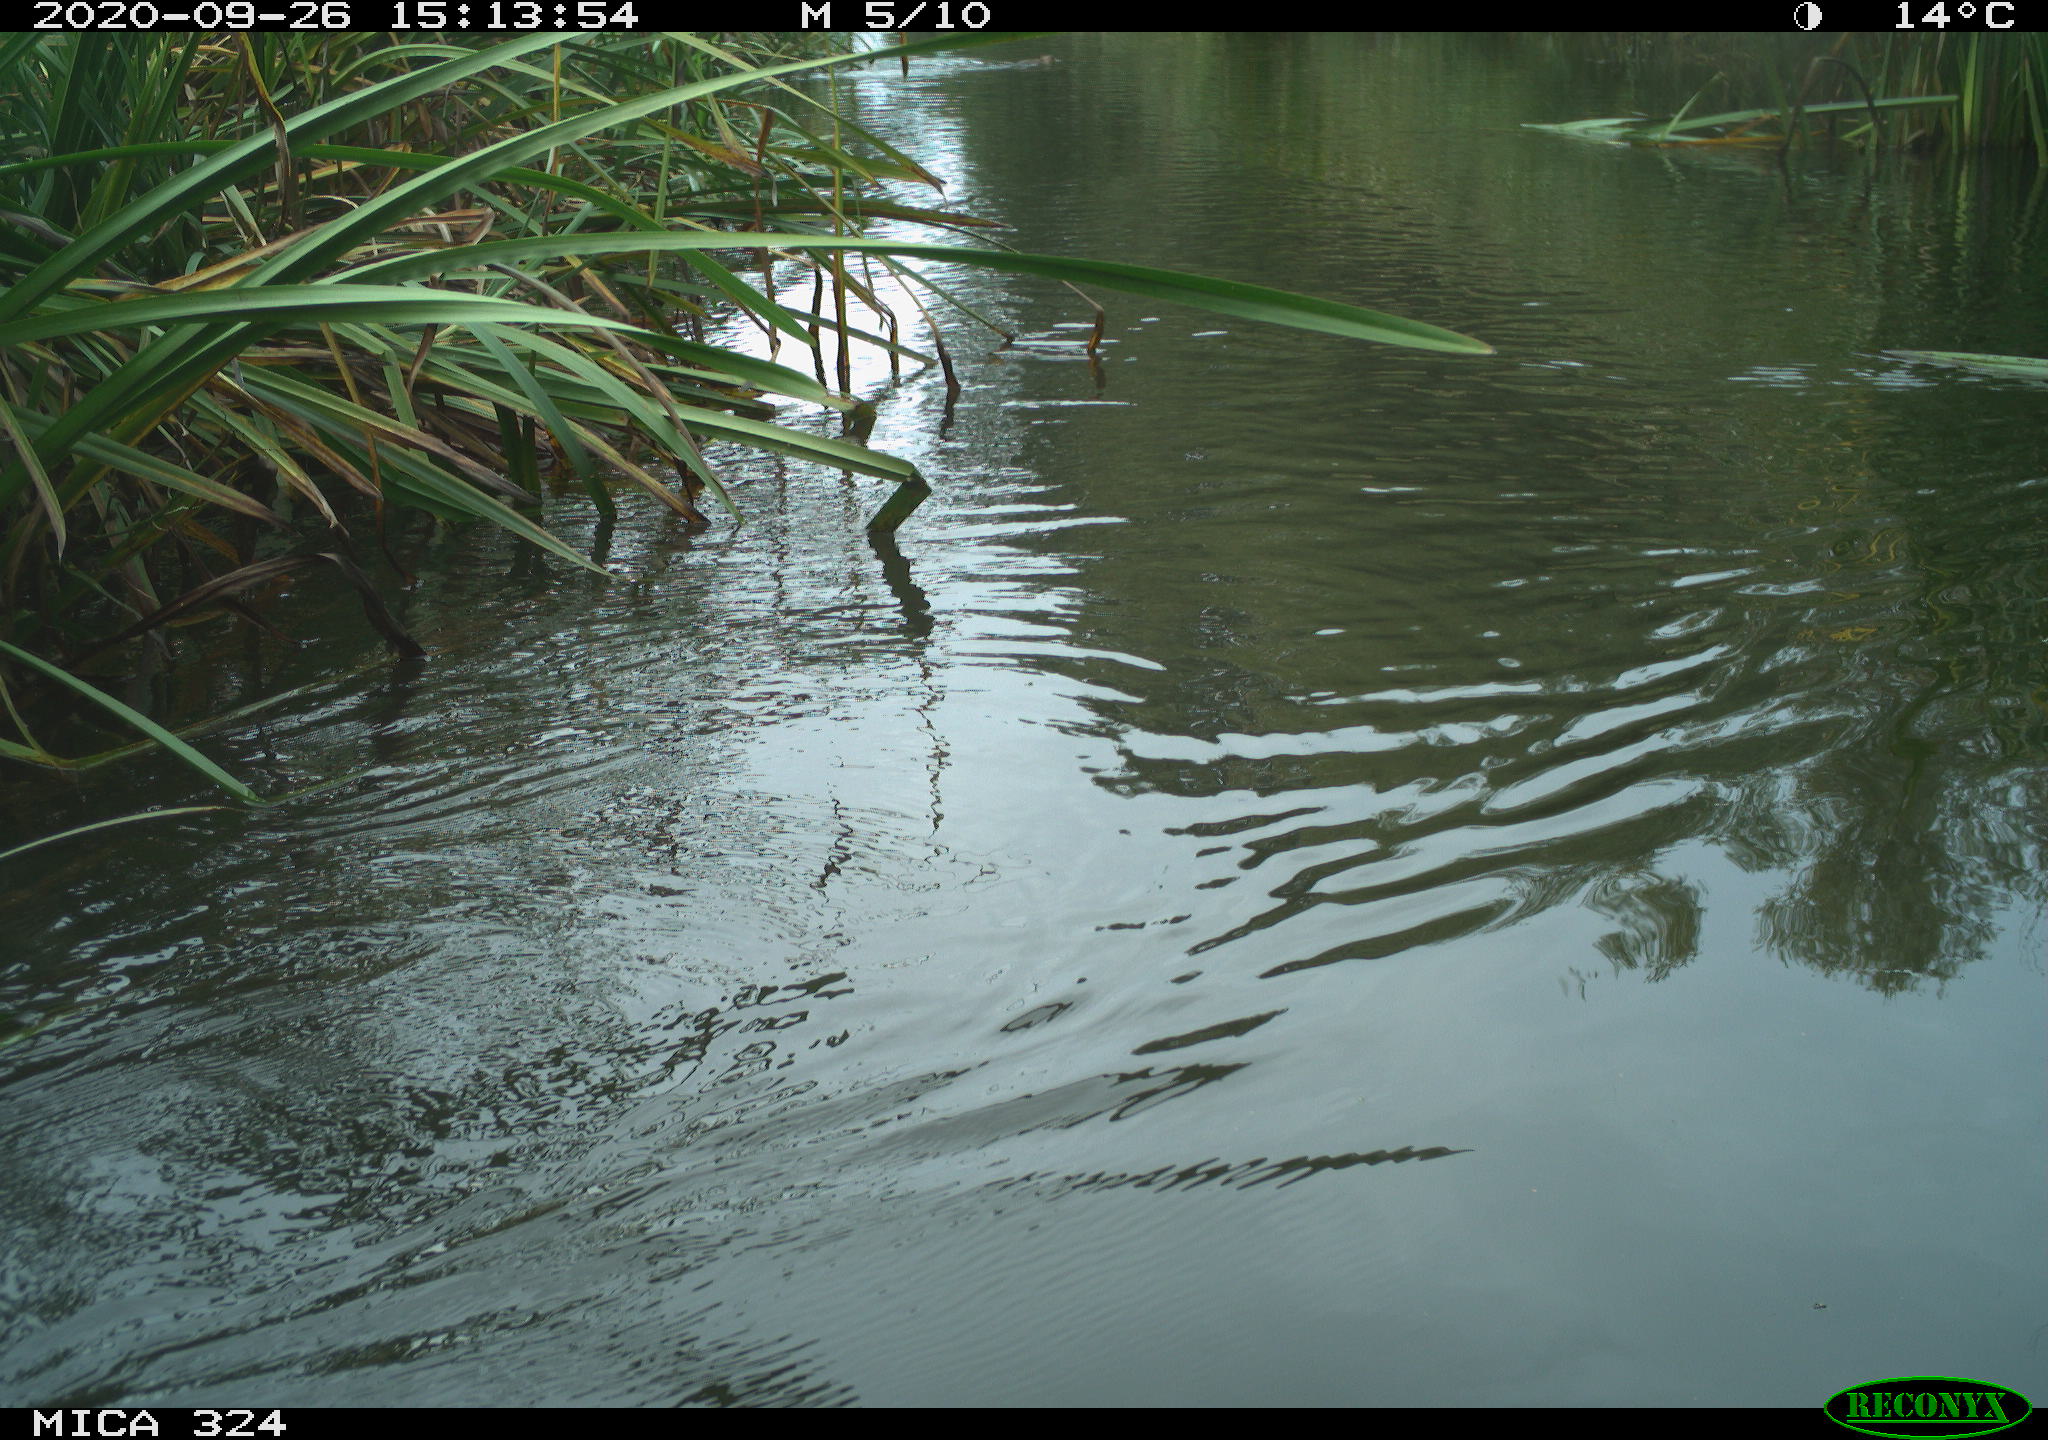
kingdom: Animalia
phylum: Chordata
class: Mammalia
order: Rodentia
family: Cricetidae
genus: Ondatra
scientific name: Ondatra zibethicus
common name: Muskrat
